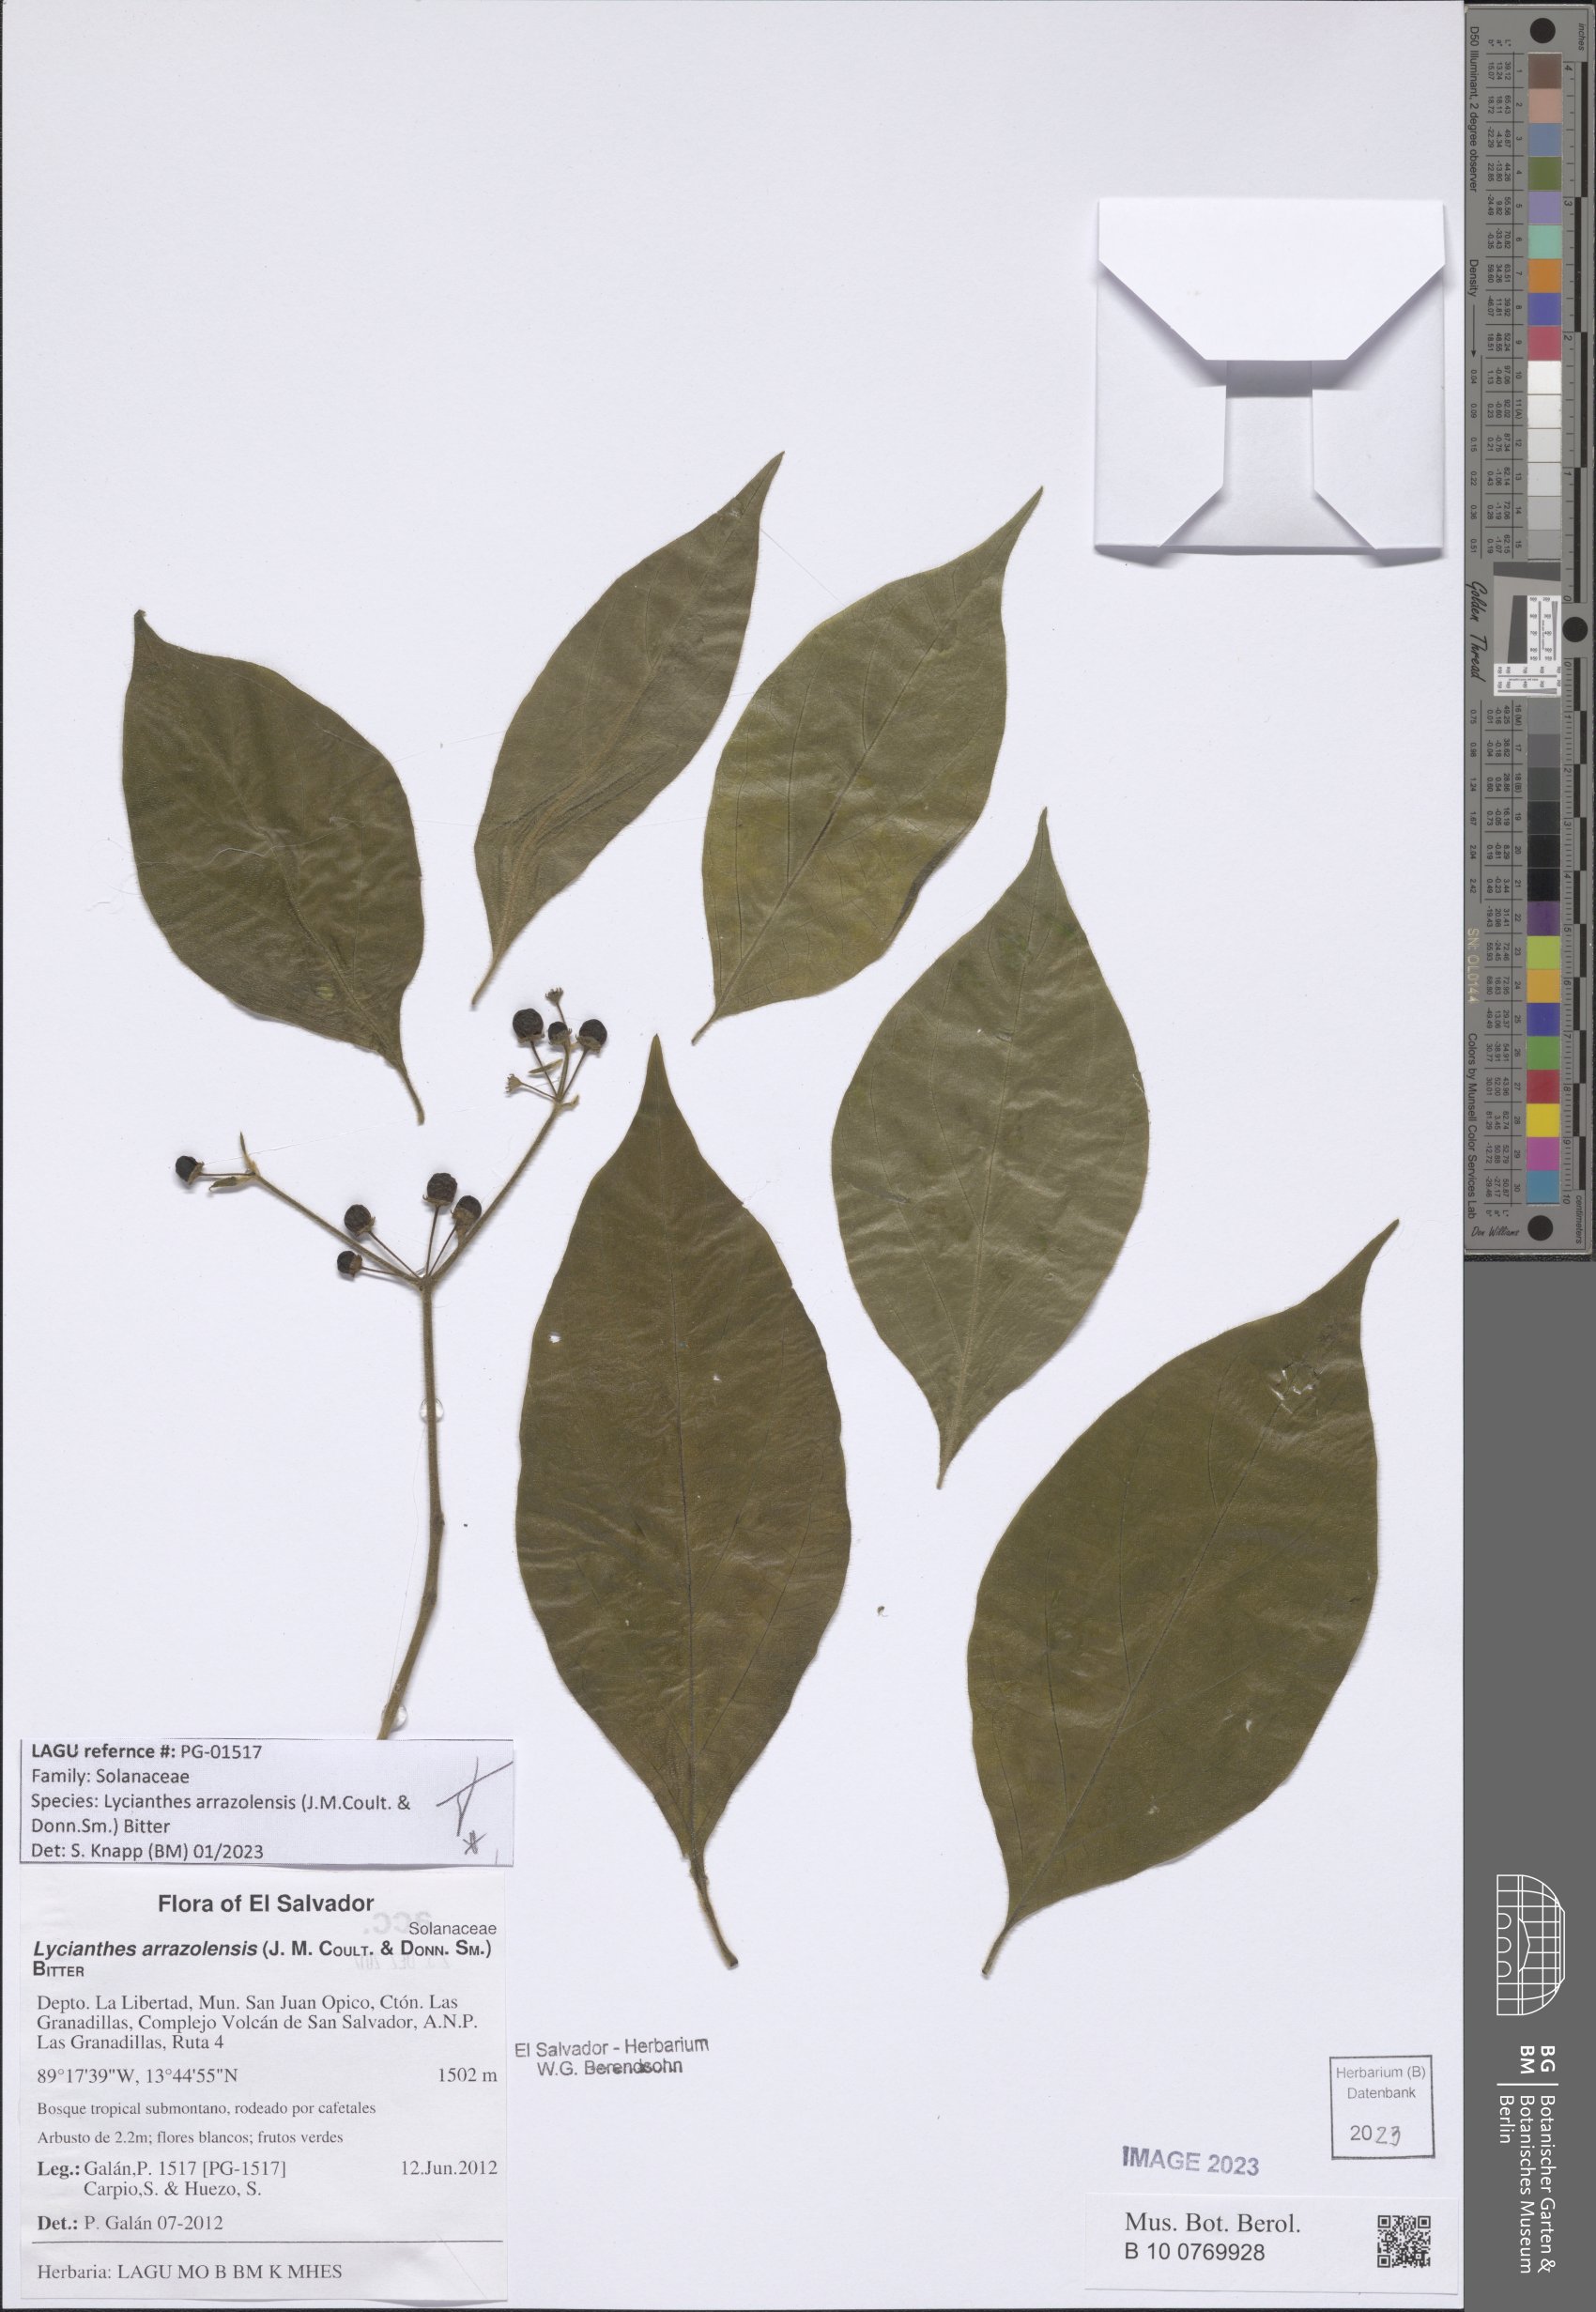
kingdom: Plantae
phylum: Tracheophyta
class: Magnoliopsida
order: Solanales
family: Solanaceae
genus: Lycianthes
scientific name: Lycianthes arrazolensis
